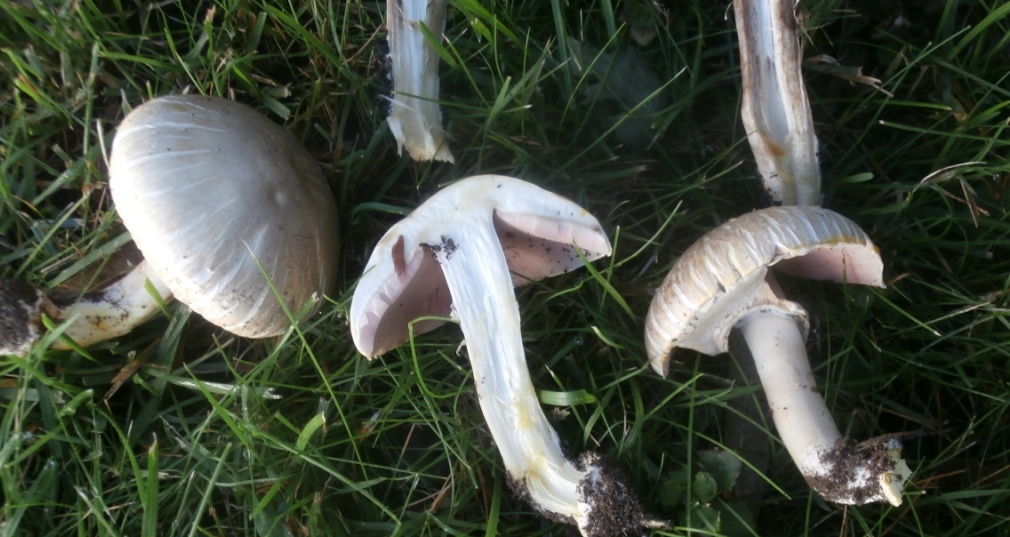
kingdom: Fungi
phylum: Basidiomycota
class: Agaricomycetes
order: Agaricales
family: Agaricaceae
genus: Agaricus
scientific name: Agaricus xanthodermus
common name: karbol-champignon
